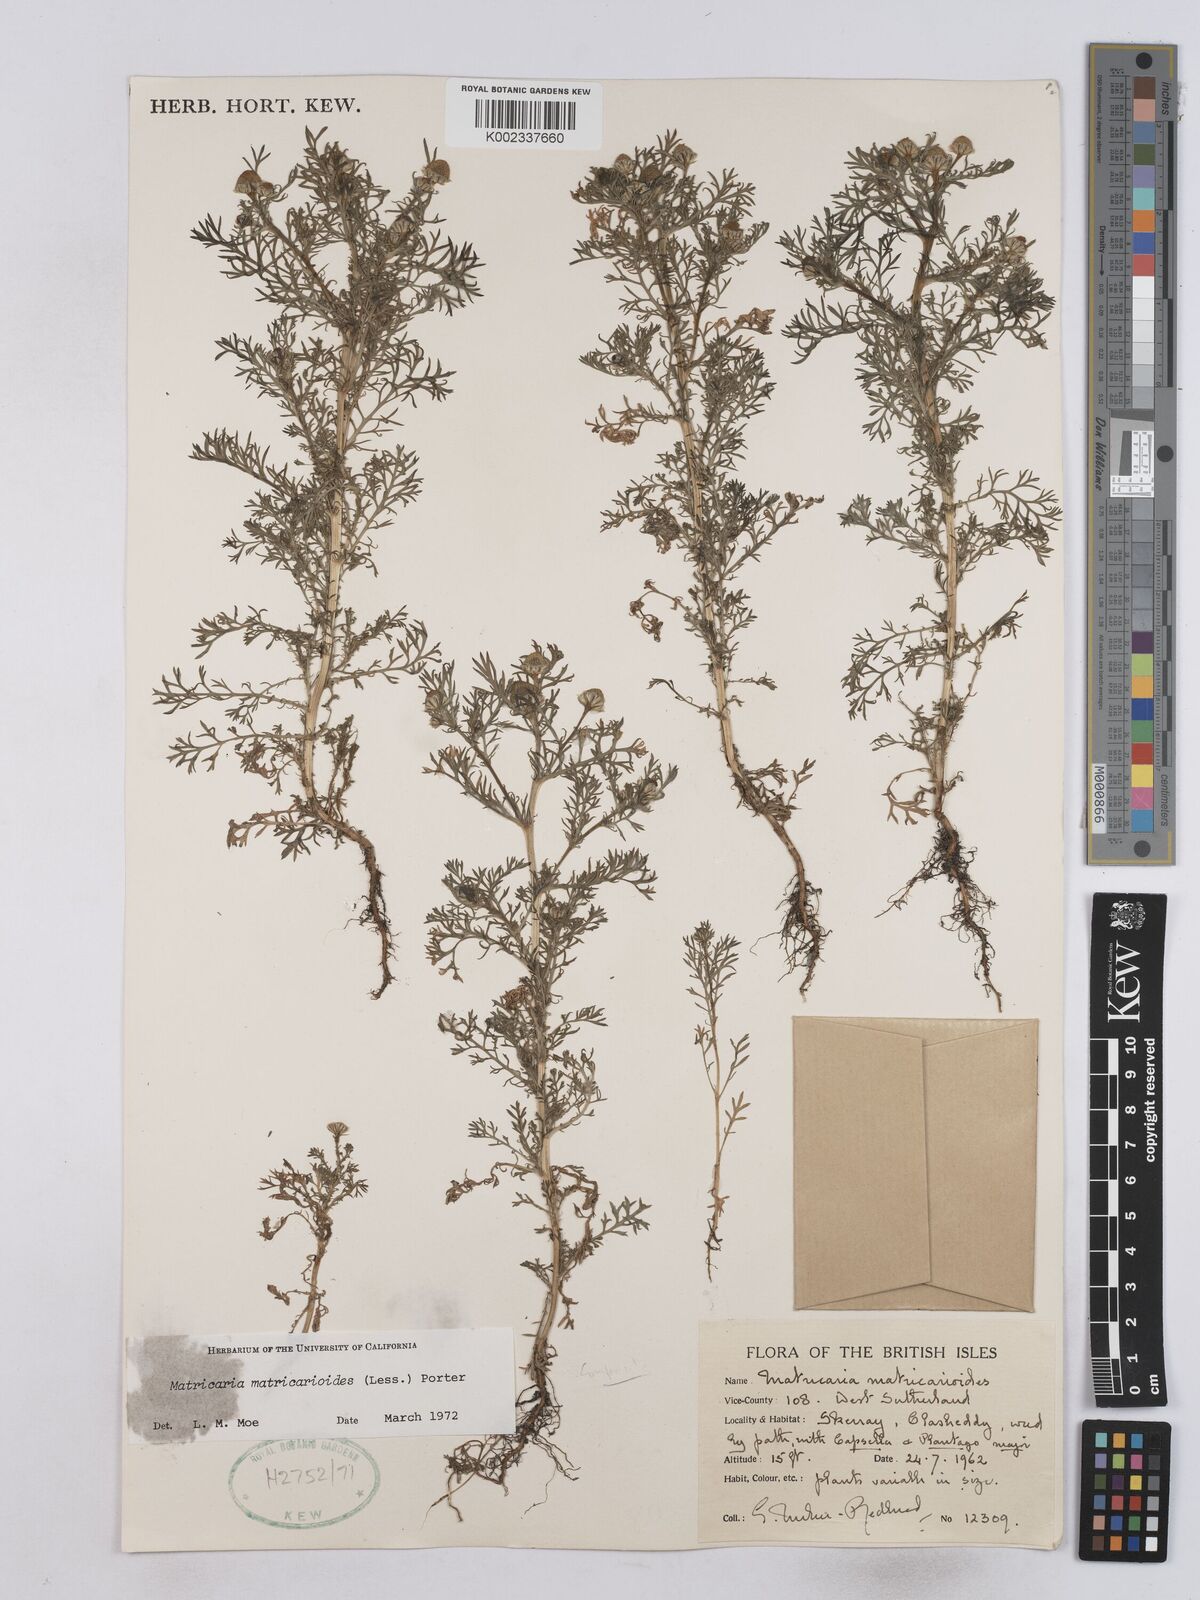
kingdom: Plantae
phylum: Tracheophyta
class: Magnoliopsida
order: Asterales
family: Asteraceae
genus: Matricaria
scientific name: Matricaria discoidea
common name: Disc mayweed
